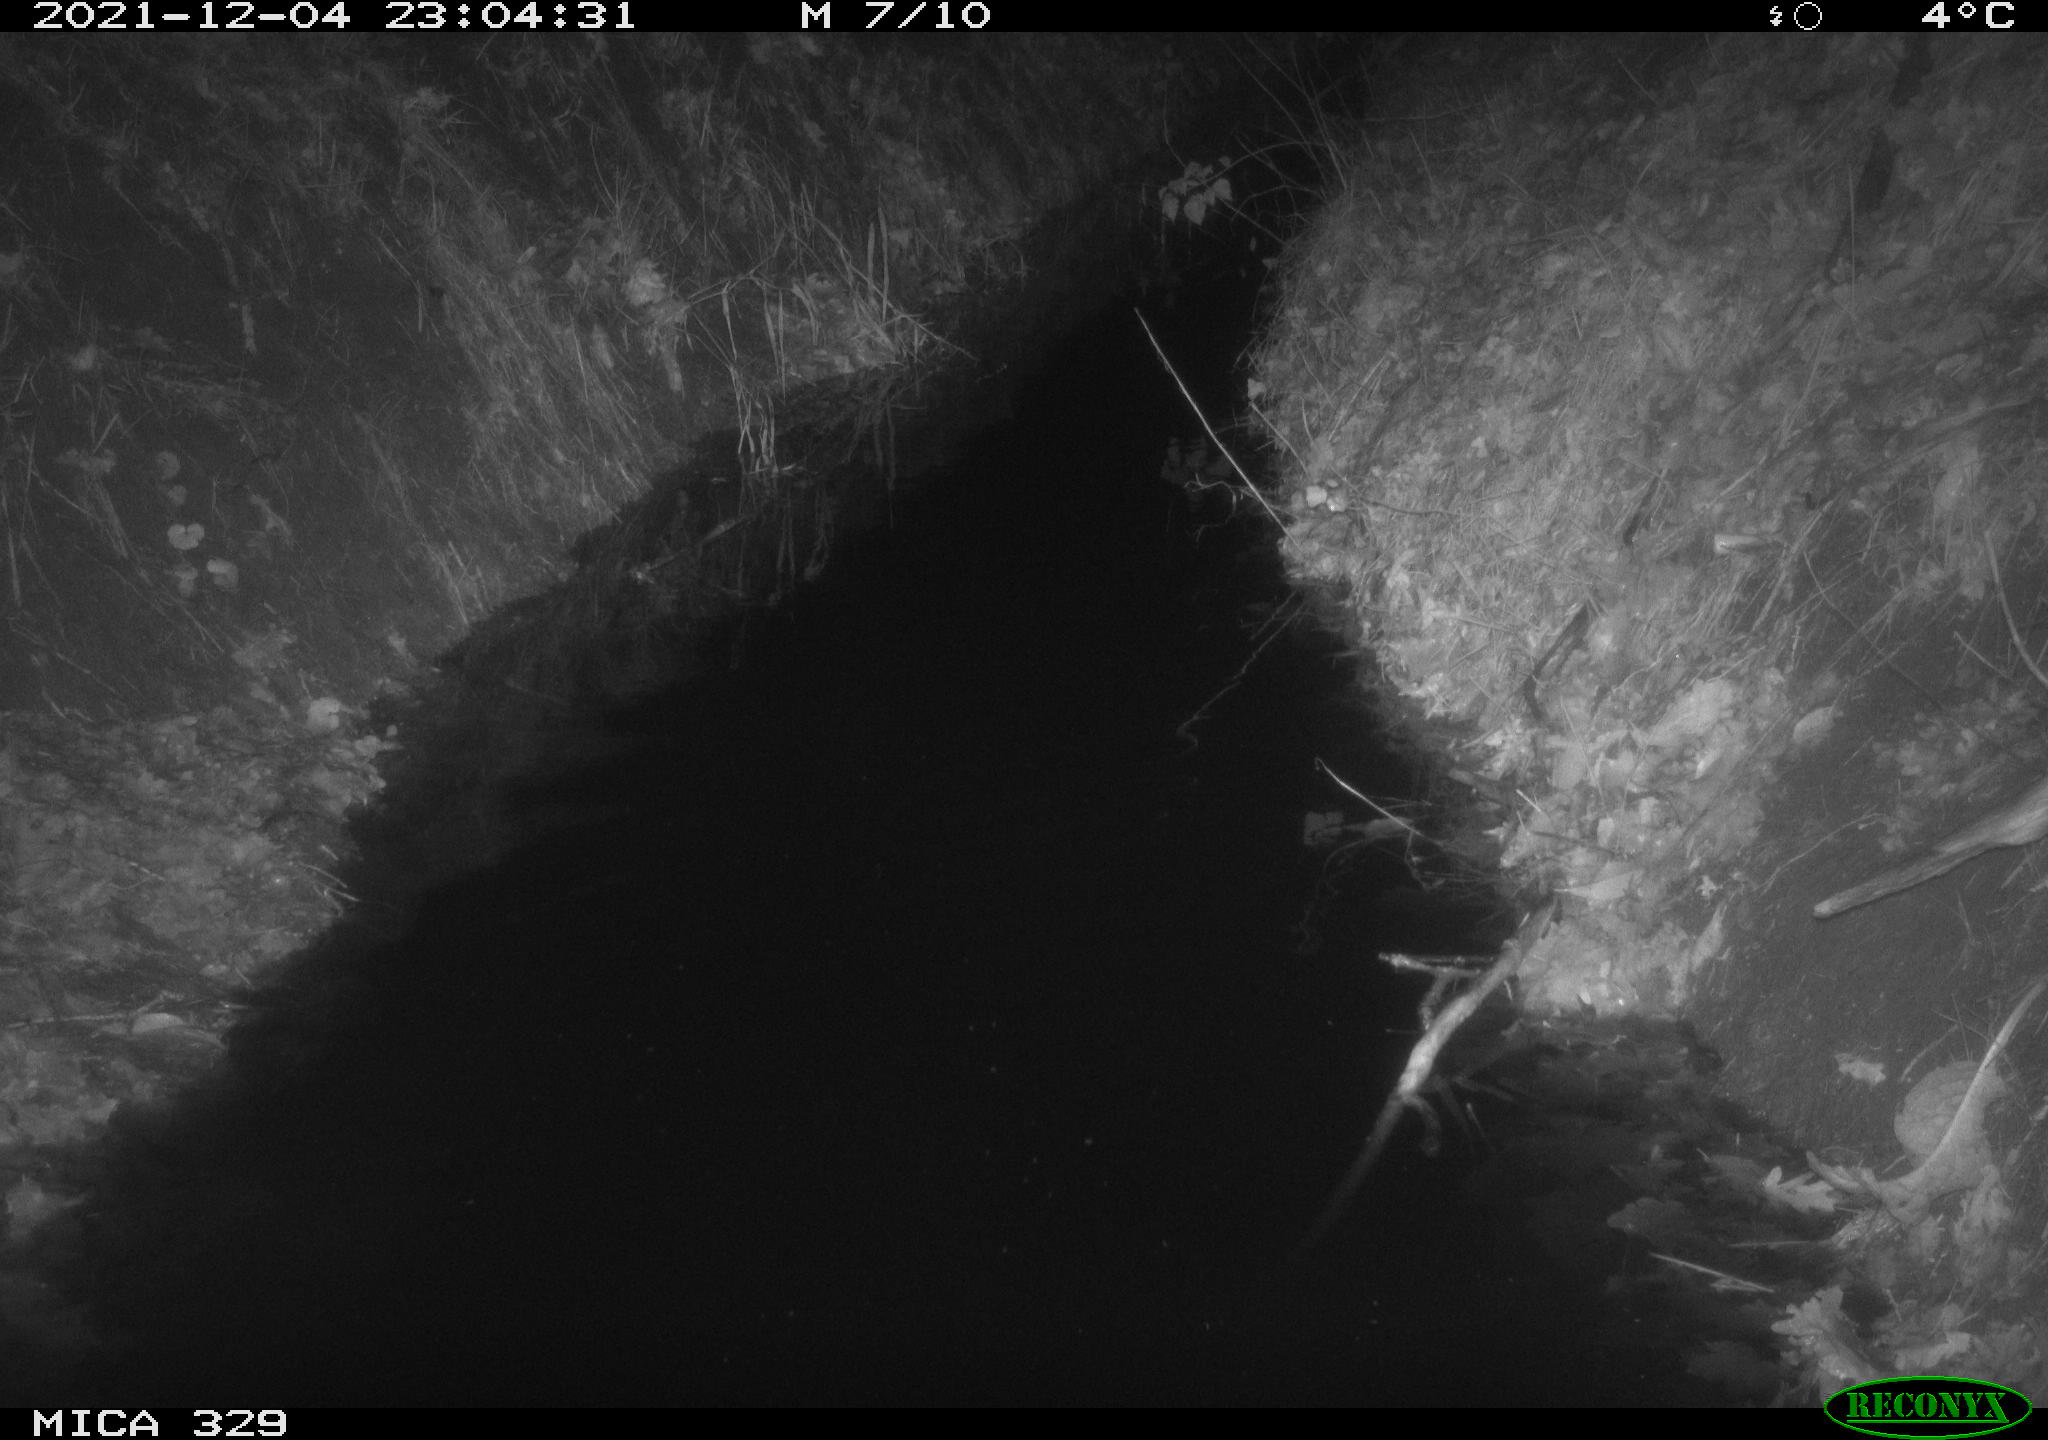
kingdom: Animalia
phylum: Chordata
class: Mammalia
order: Rodentia
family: Muridae
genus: Rattus
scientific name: Rattus norvegicus
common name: Brown rat
